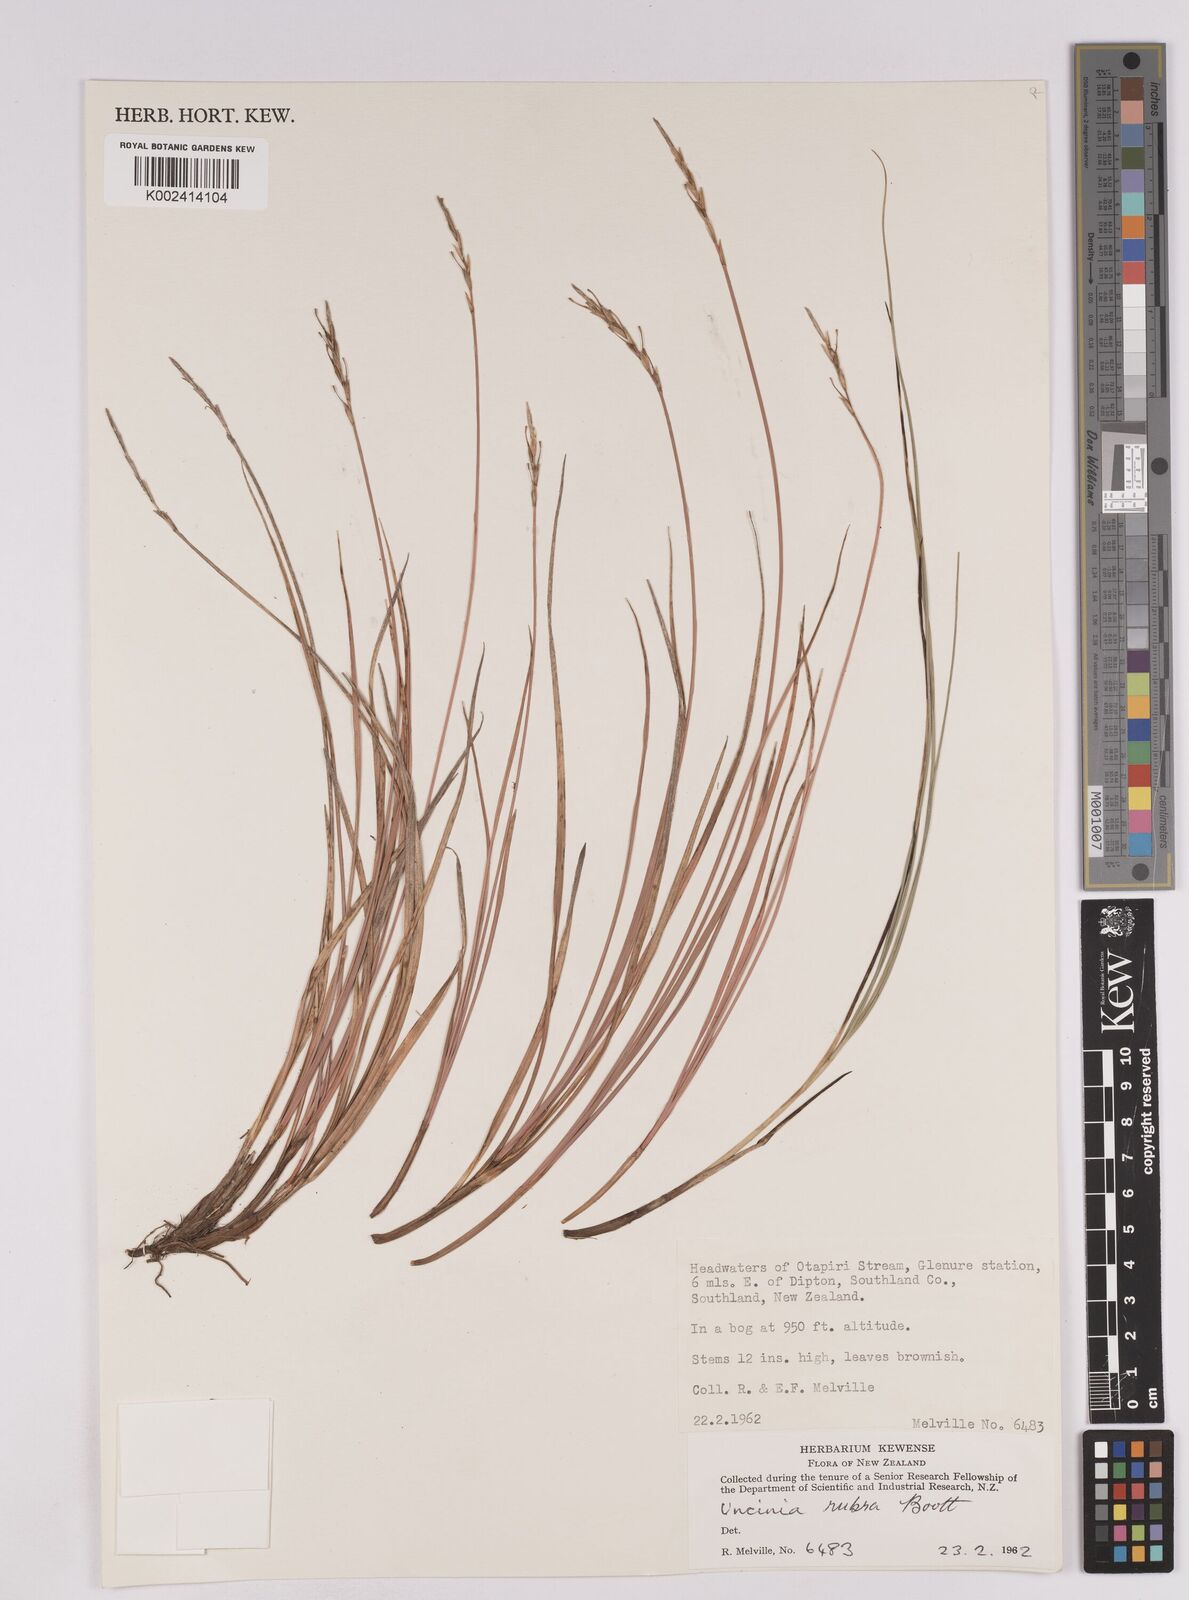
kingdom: Plantae
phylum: Tracheophyta
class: Liliopsida
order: Poales
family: Cyperaceae
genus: Carex
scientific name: Carex punicea
